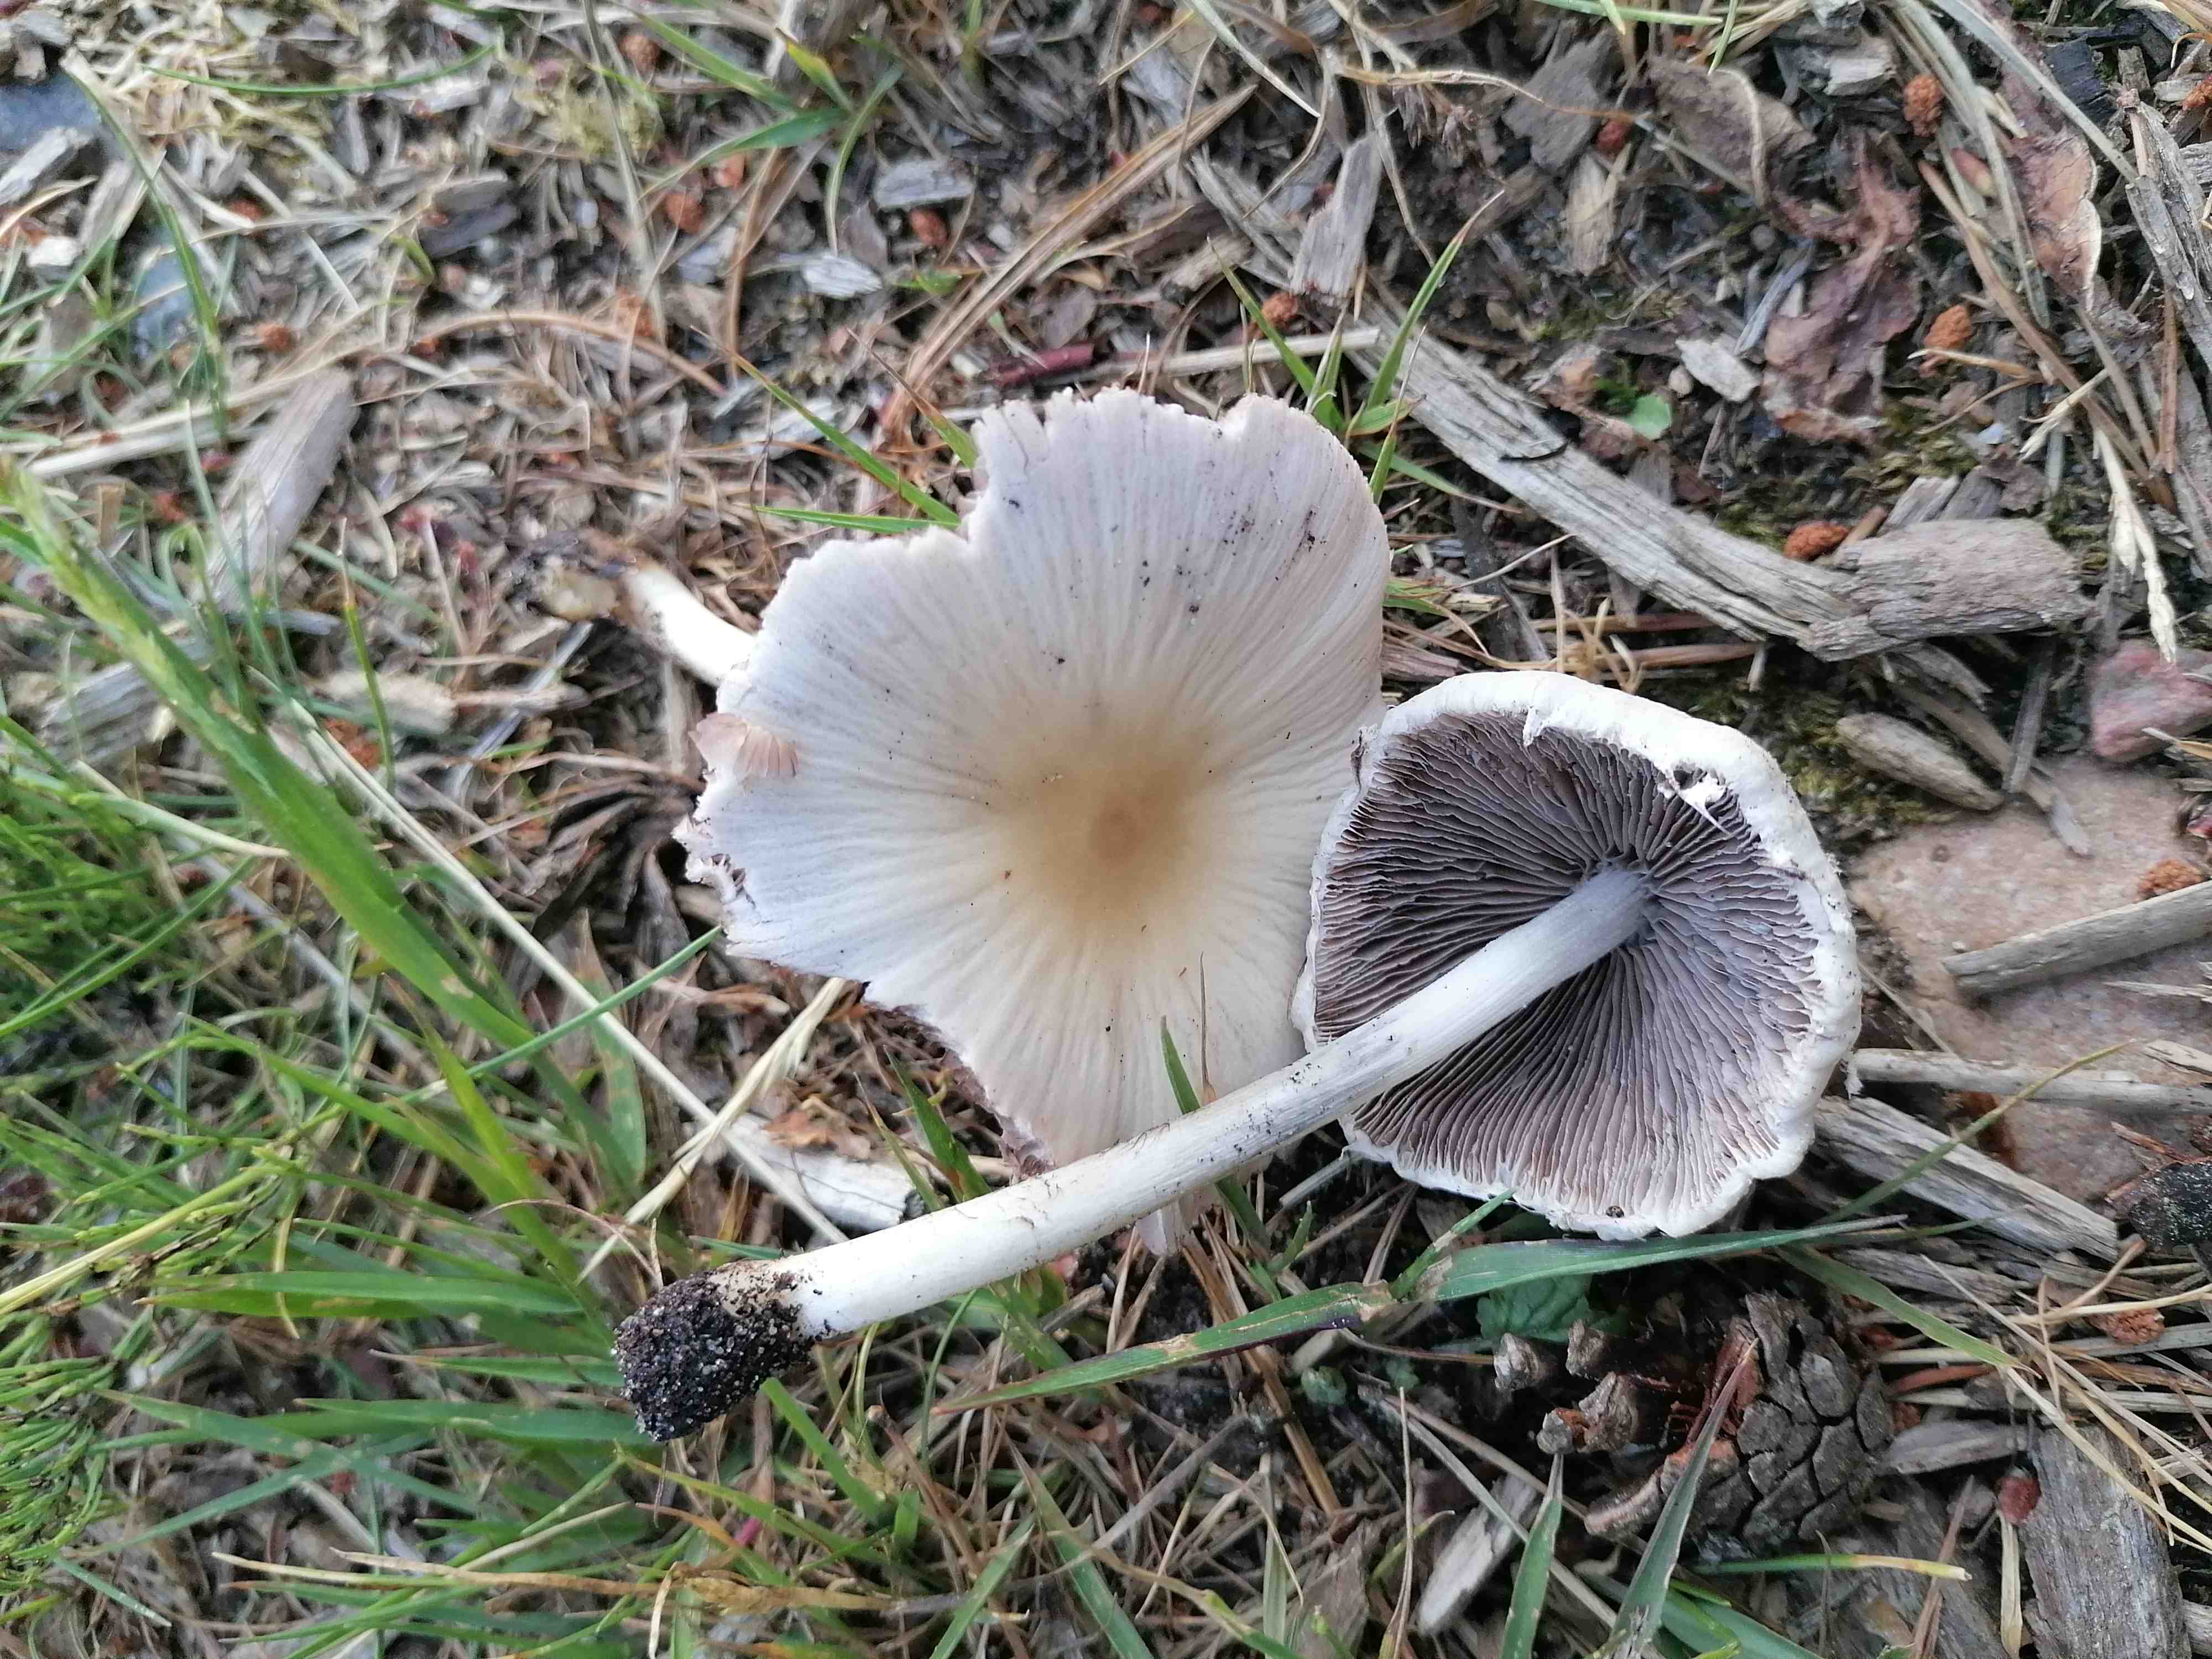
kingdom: Fungi
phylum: Basidiomycota
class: Agaricomycetes
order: Agaricales
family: Psathyrellaceae
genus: Candolleomyces
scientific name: Candolleomyces candolleanus
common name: Candolles mørkhat
